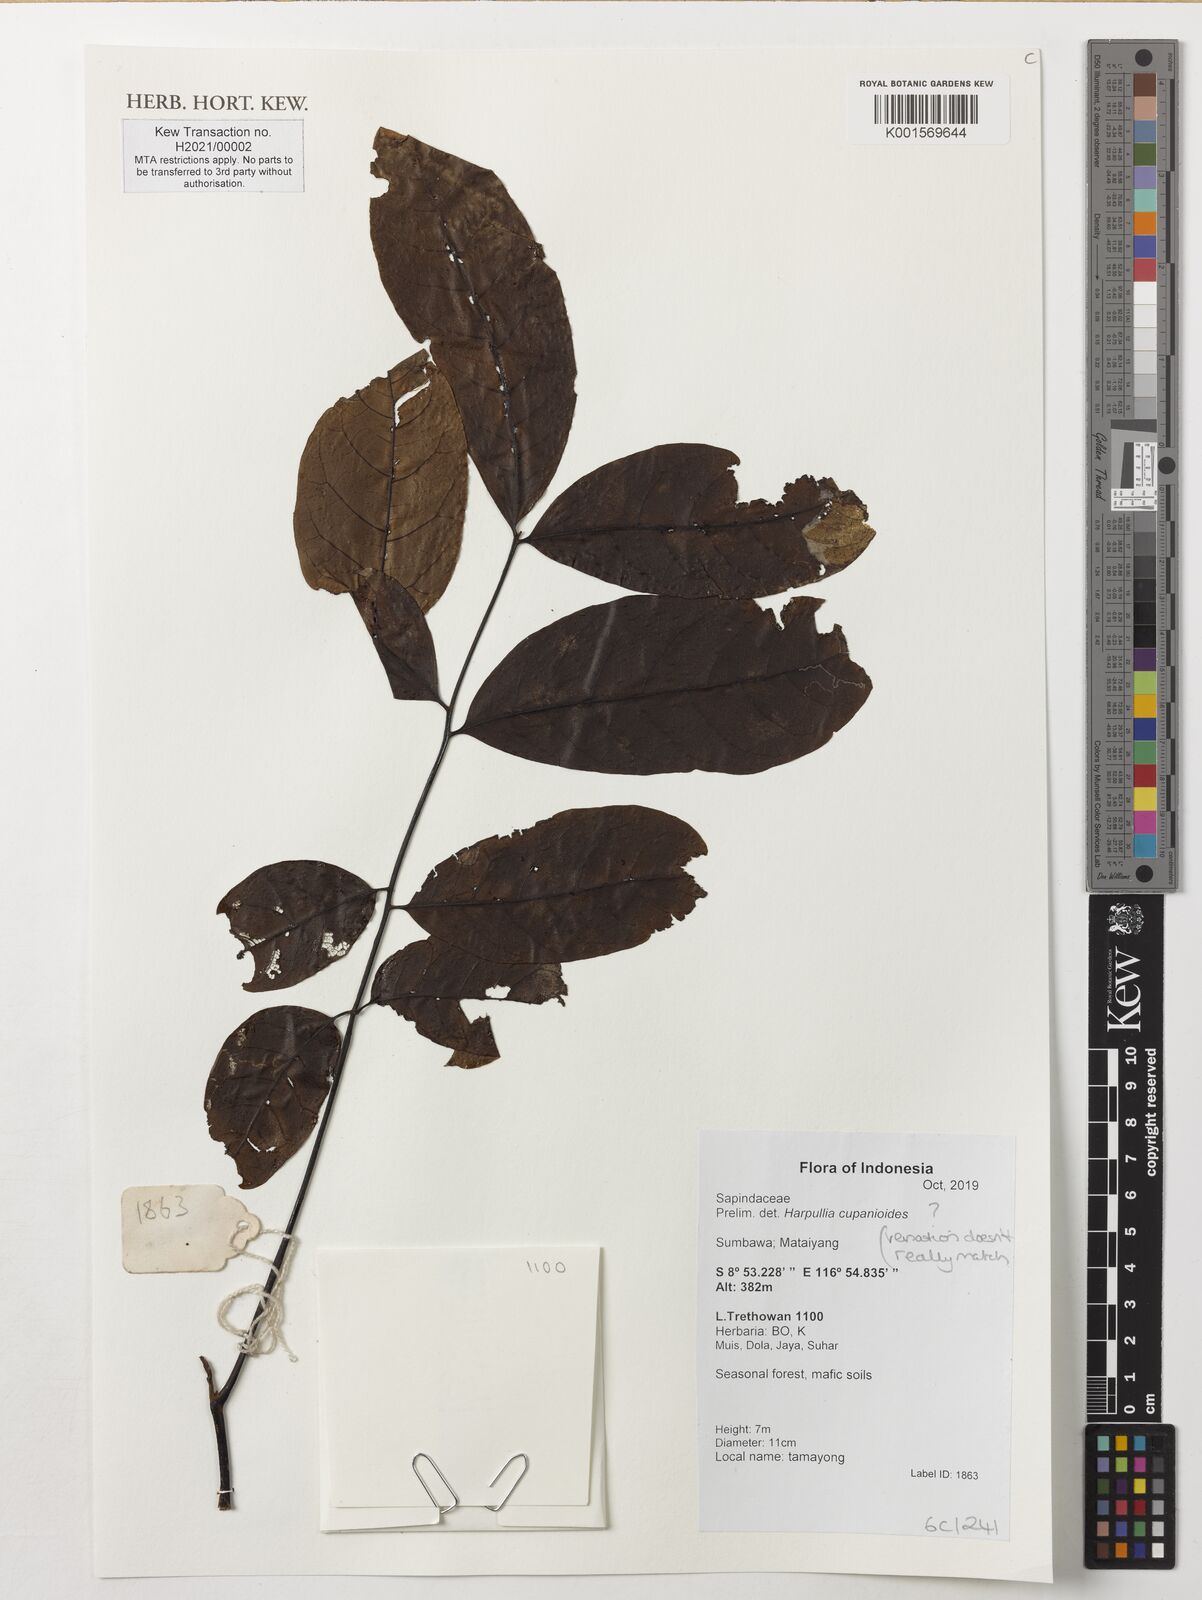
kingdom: Plantae
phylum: Tracheophyta
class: Magnoliopsida
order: Sapindales
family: Sapindaceae
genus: Harpullia
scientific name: Harpullia cupanioides
